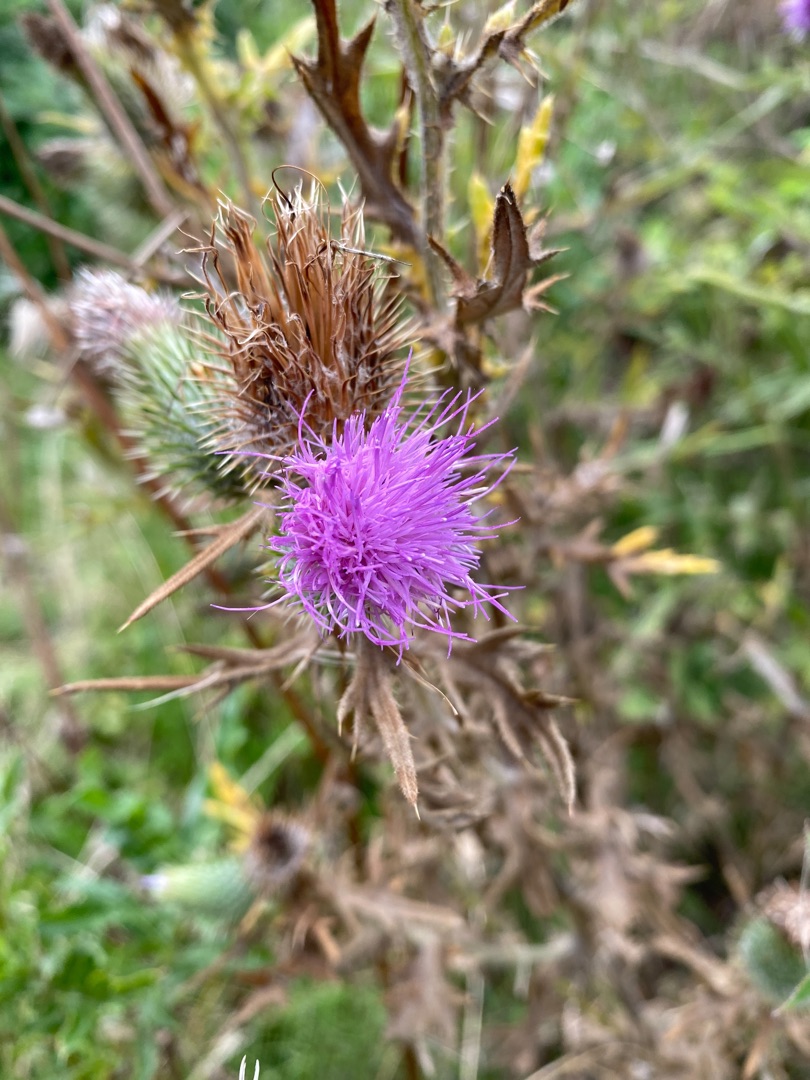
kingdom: Plantae
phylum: Tracheophyta
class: Magnoliopsida
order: Asterales
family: Asteraceae
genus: Cirsium
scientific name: Cirsium vulgare
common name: Horse-tidsel
